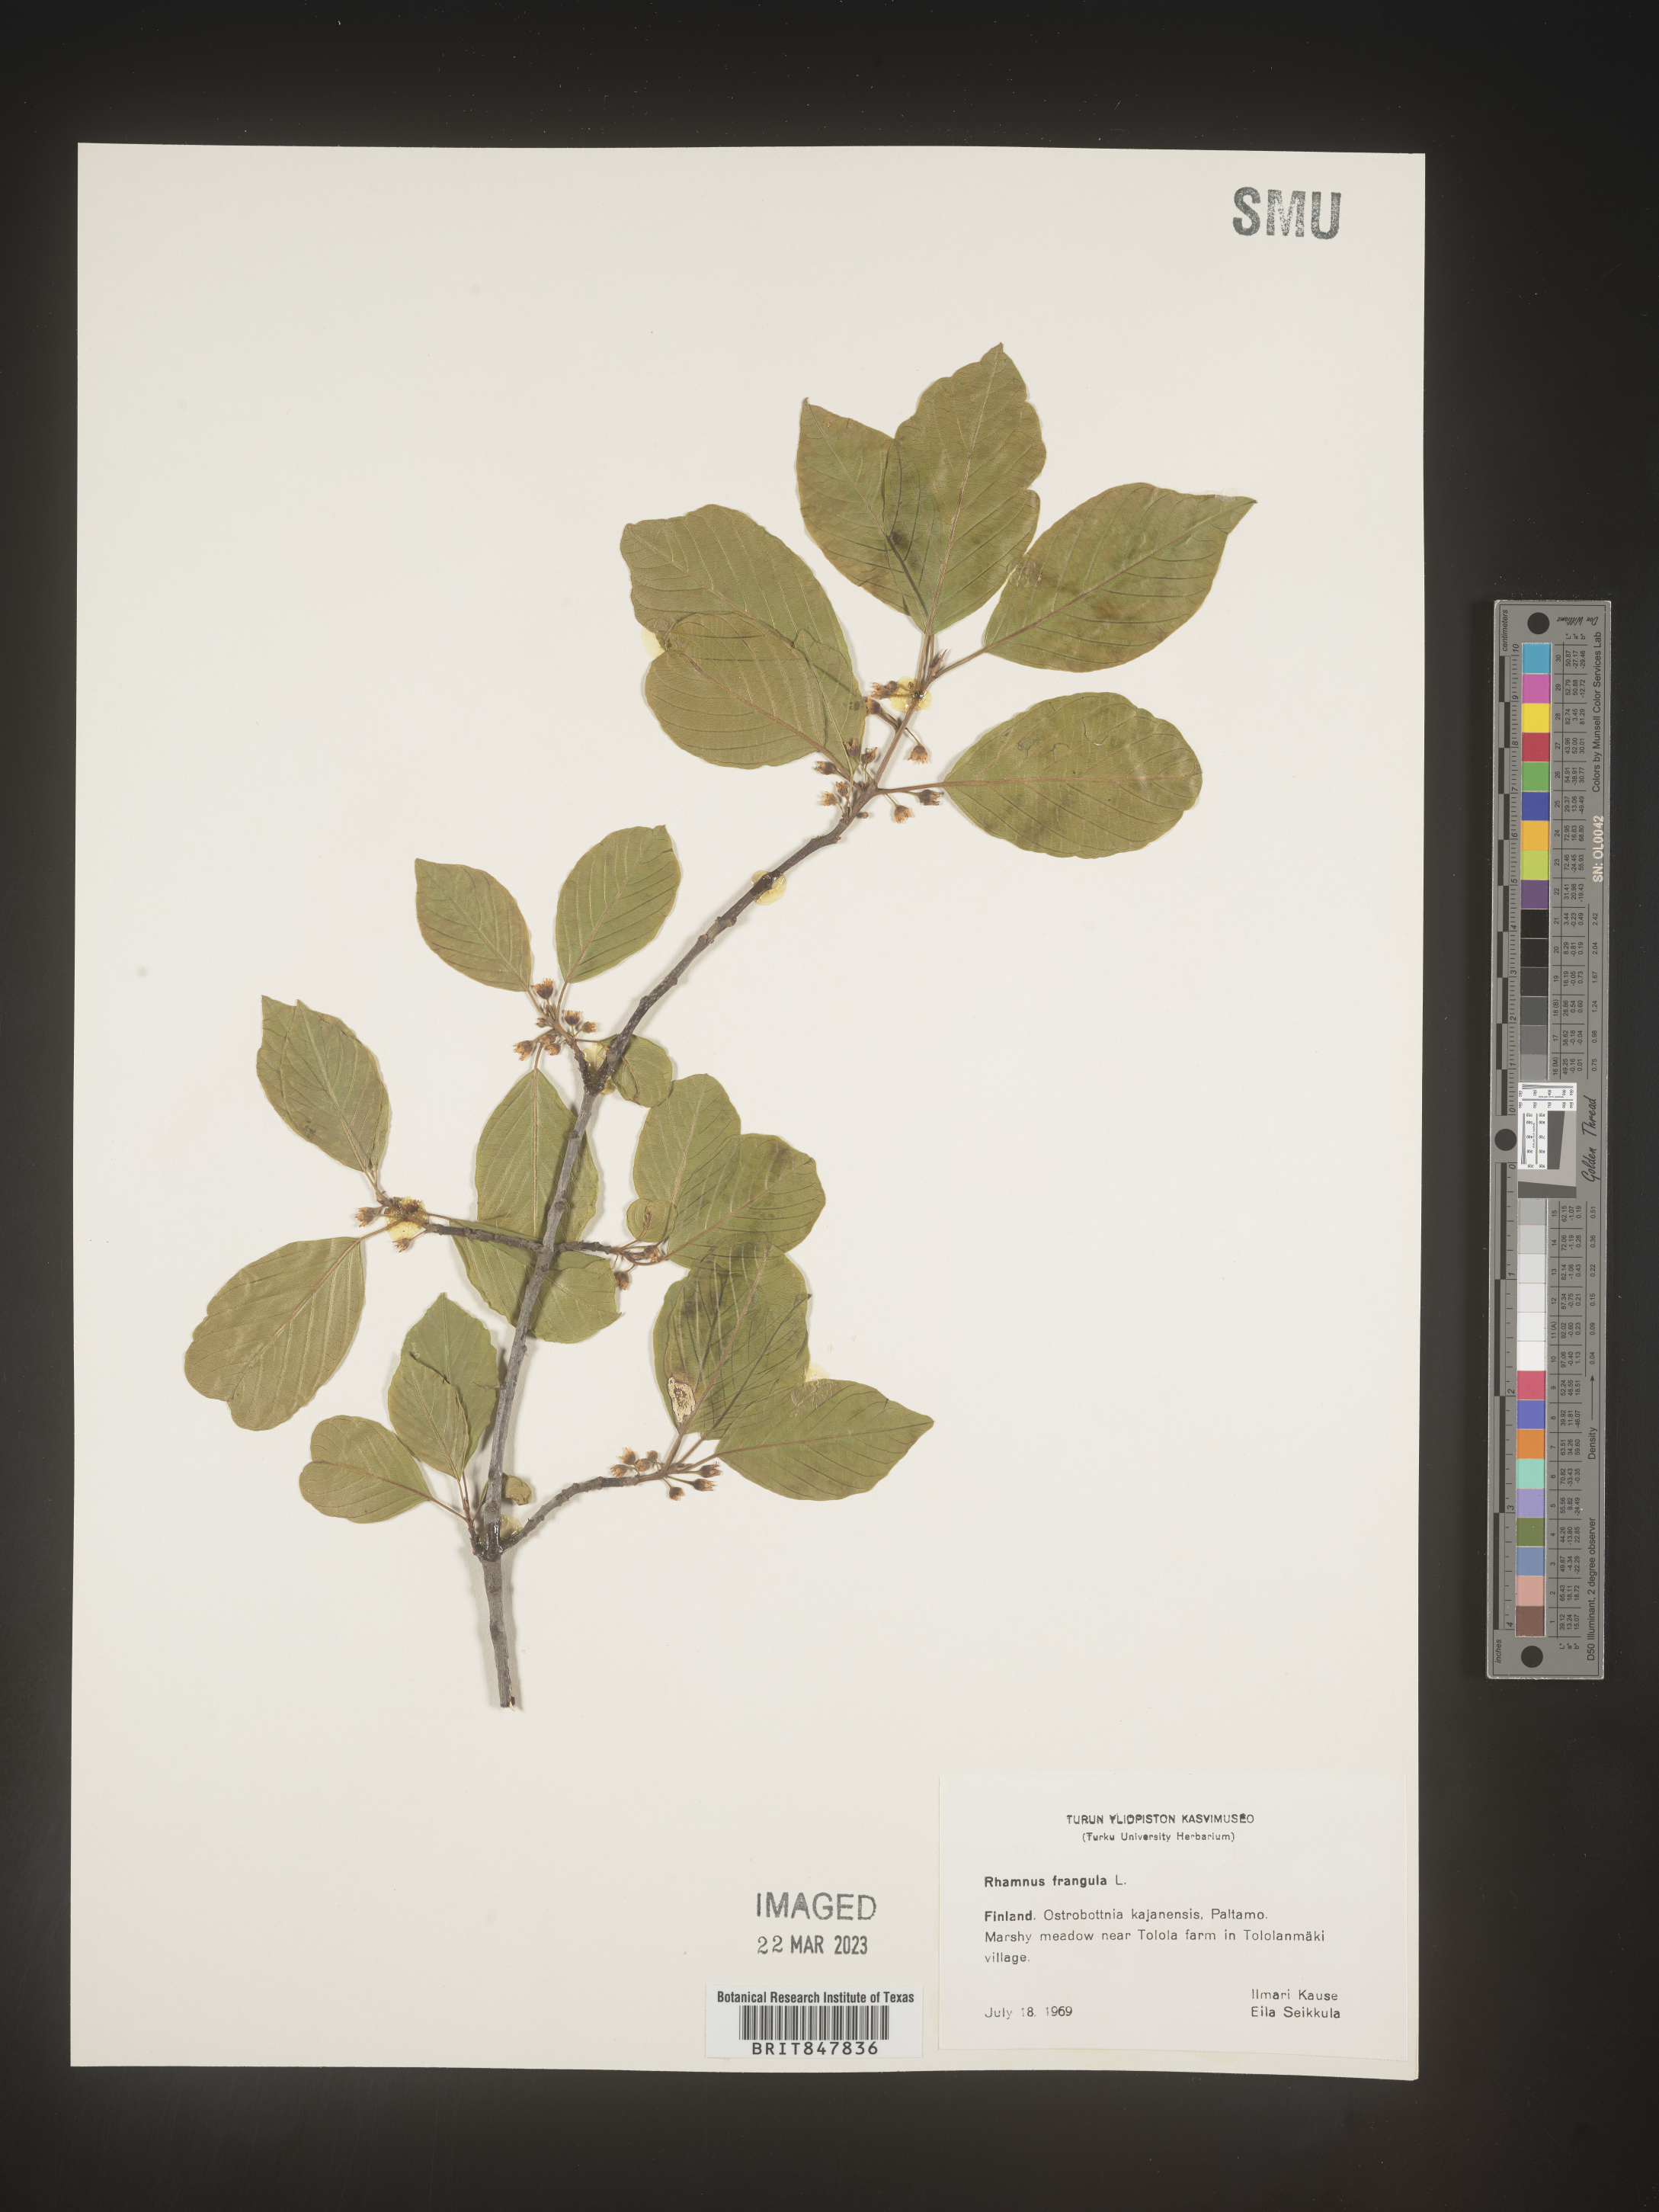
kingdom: Plantae
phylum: Tracheophyta
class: Magnoliopsida
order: Rosales
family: Rhamnaceae
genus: Rhamnus
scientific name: Rhamnus
